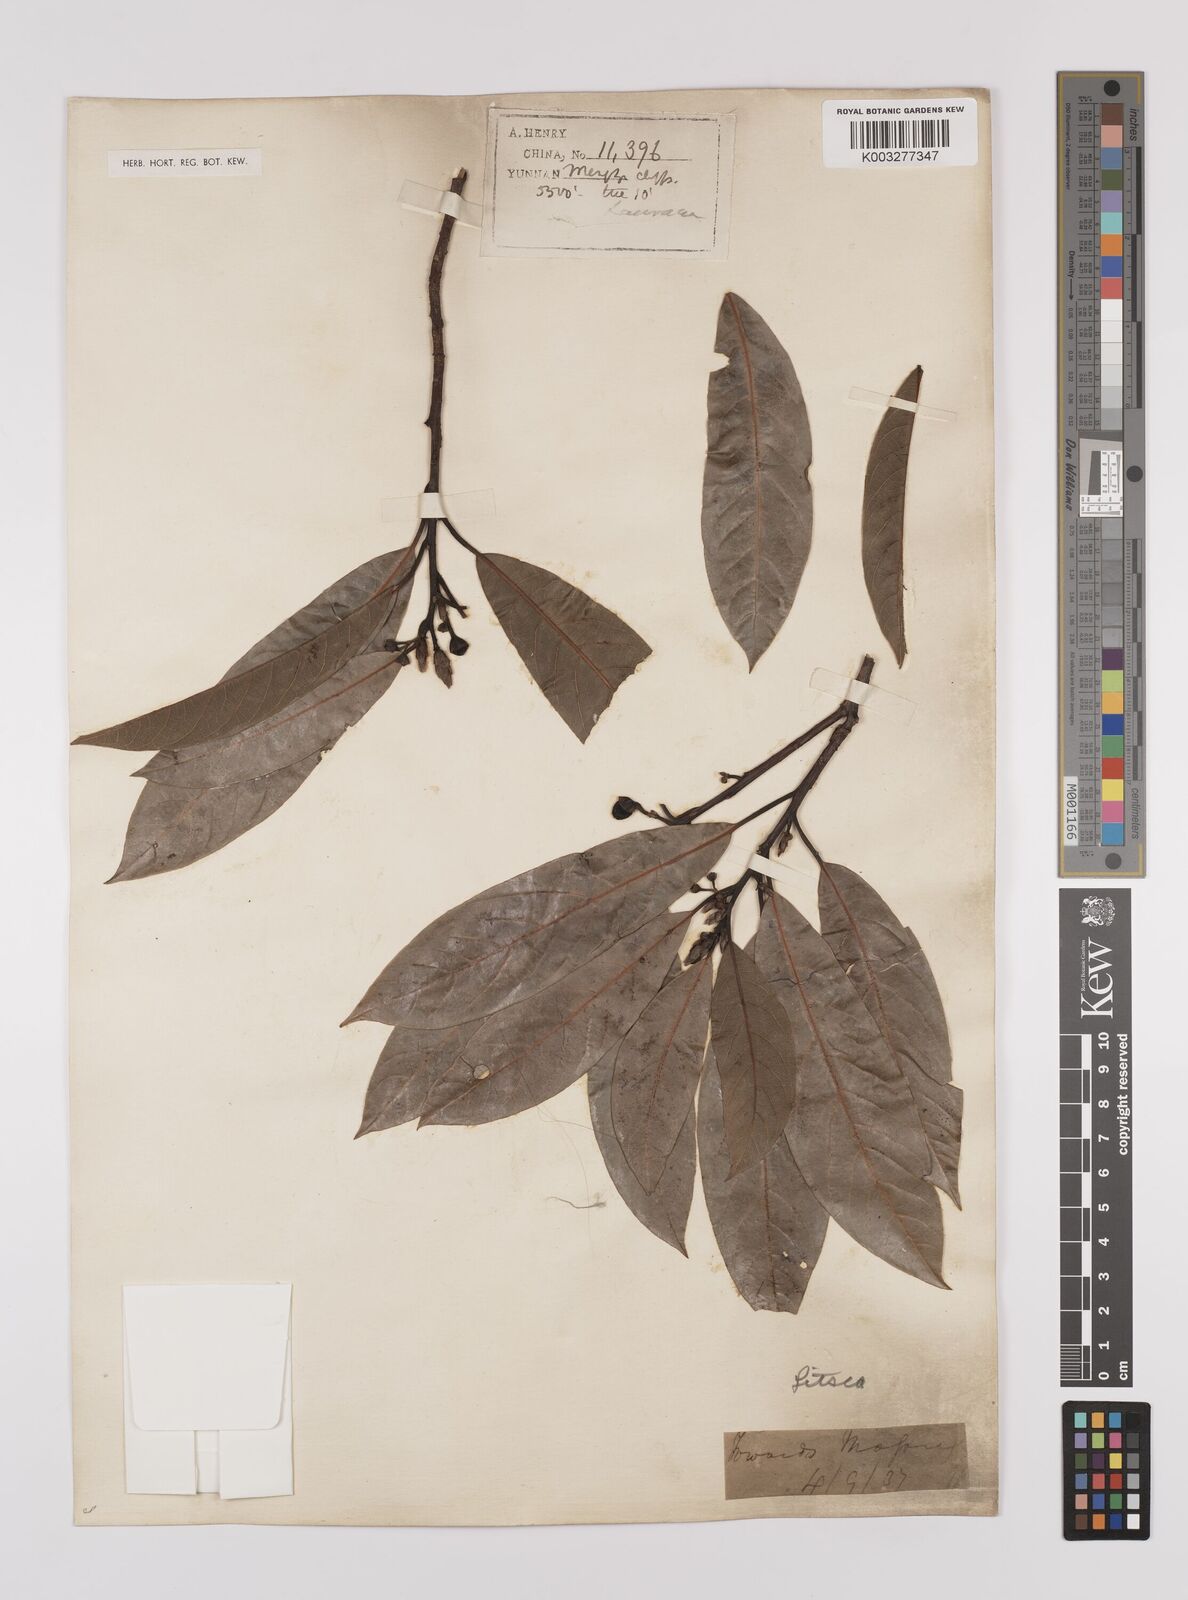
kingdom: Plantae
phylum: Tracheophyta
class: Magnoliopsida
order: Laurales
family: Lauraceae
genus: Litsea
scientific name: Litsea elongata
